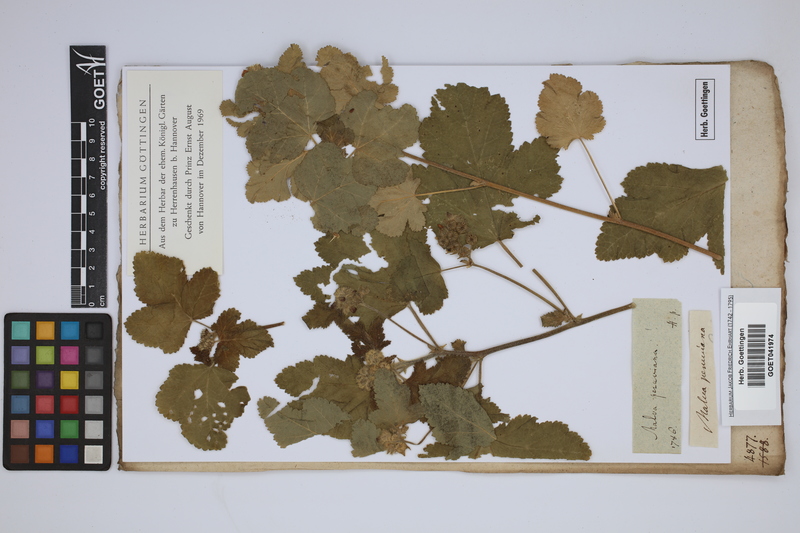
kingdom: Plantae
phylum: Tracheophyta
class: Magnoliopsida
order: Malvales
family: Malvaceae
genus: Fuertesimalva
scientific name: Fuertesimalva peruviana
